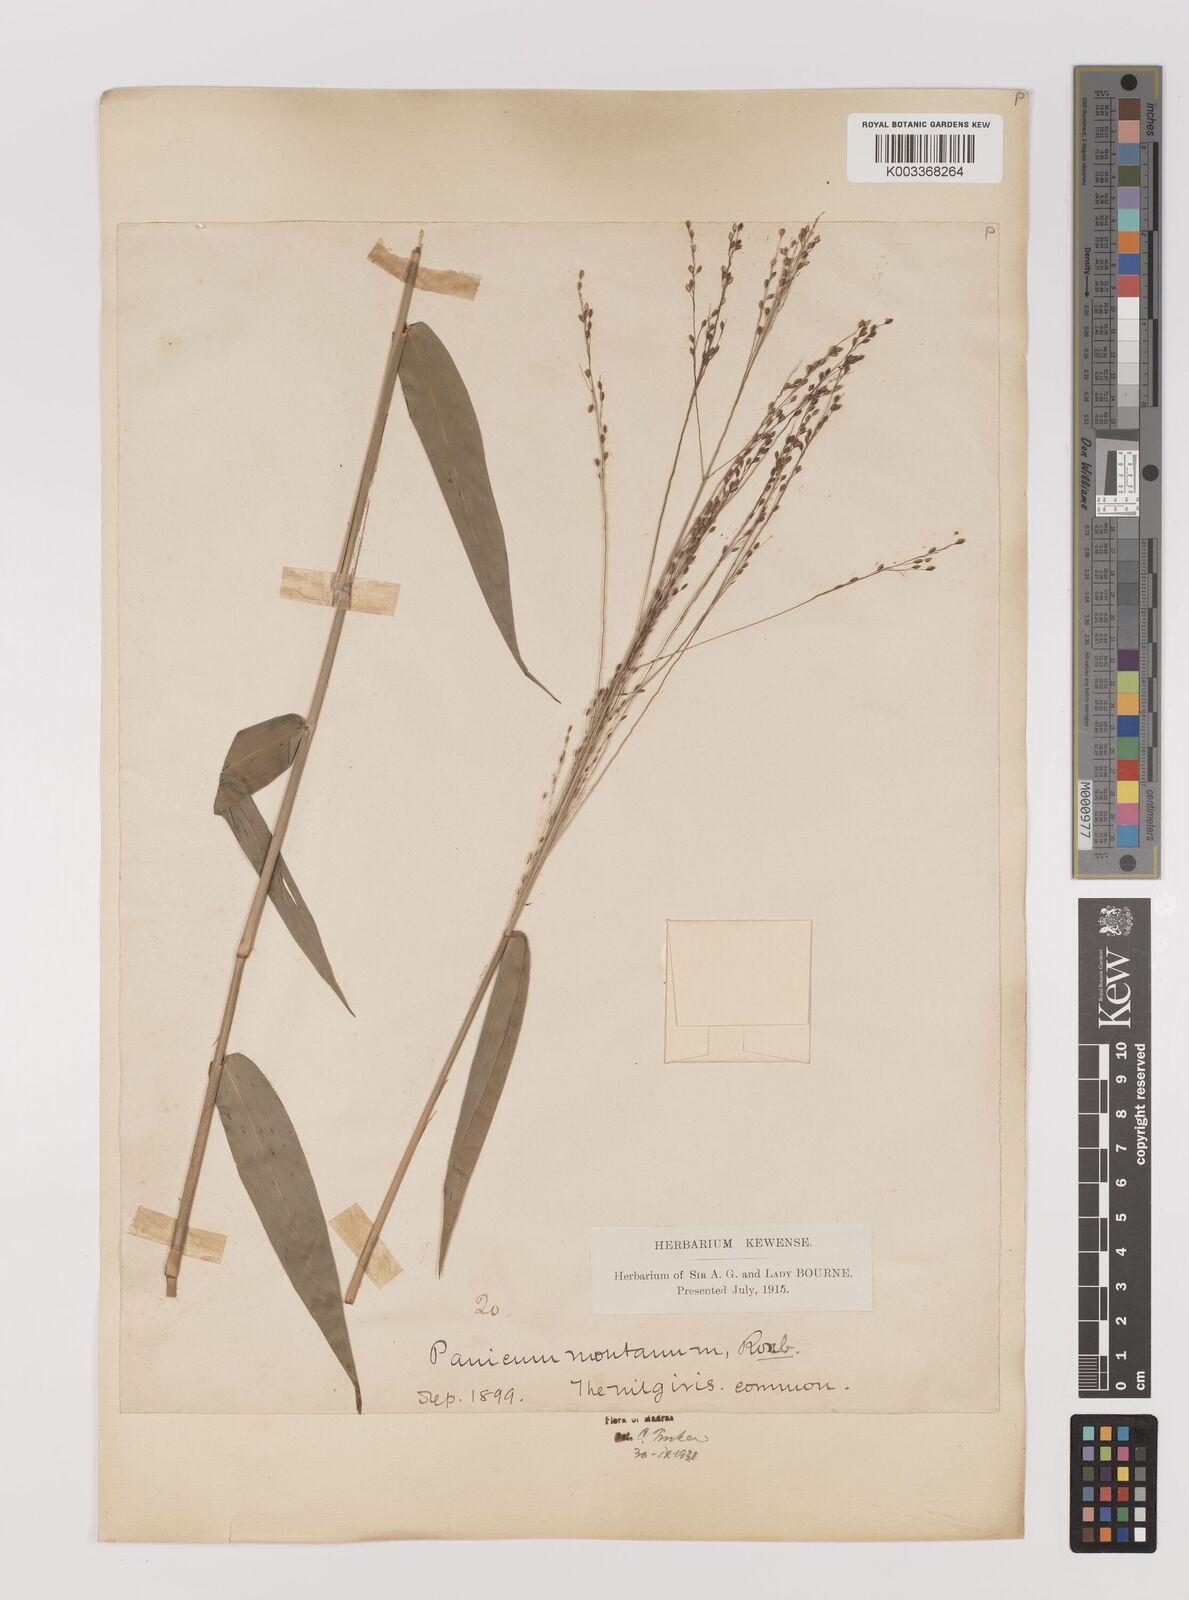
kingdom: Plantae
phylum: Tracheophyta
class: Liliopsida
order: Poales
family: Poaceae
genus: Panicum
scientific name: Panicum notatum
